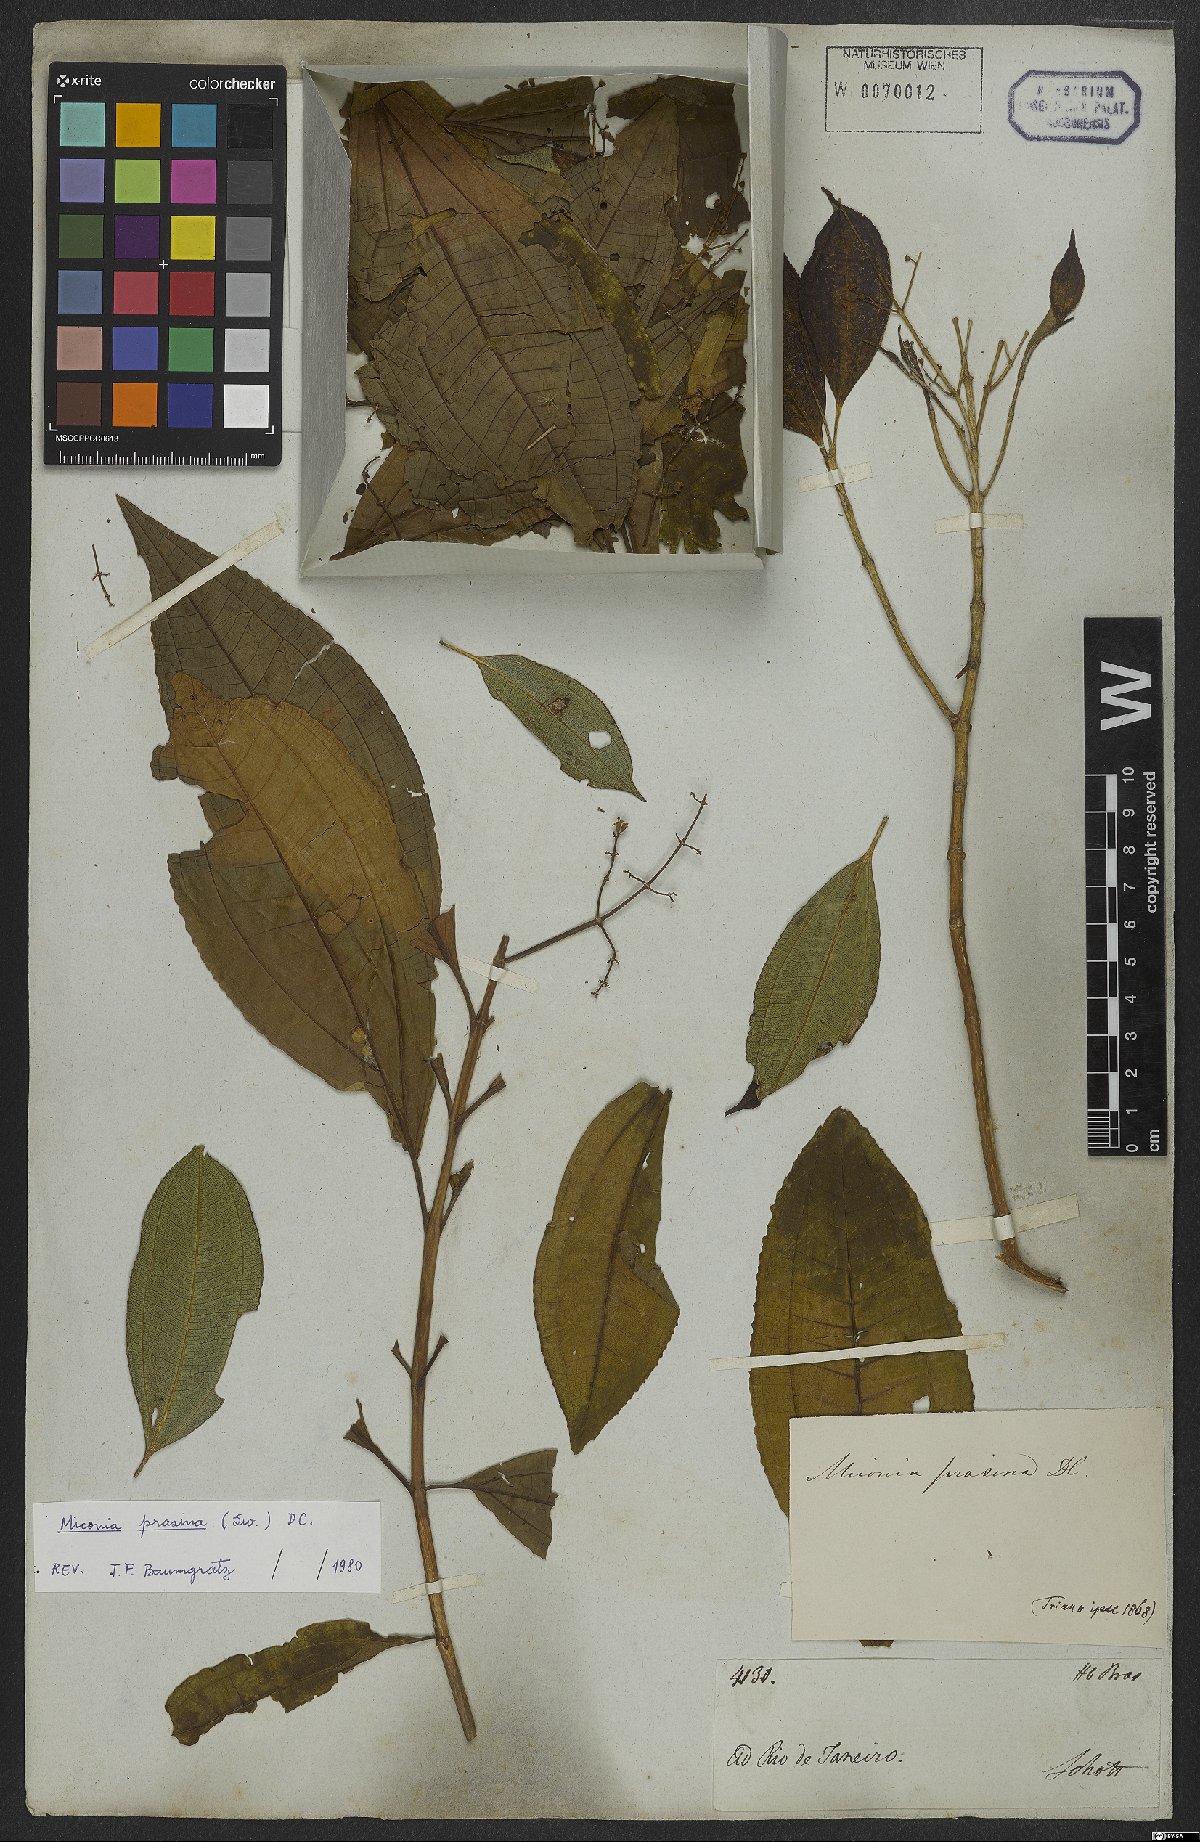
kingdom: Plantae
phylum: Tracheophyta
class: Magnoliopsida
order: Myrtales
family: Melastomataceae
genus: Miconia
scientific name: Miconia prasina
